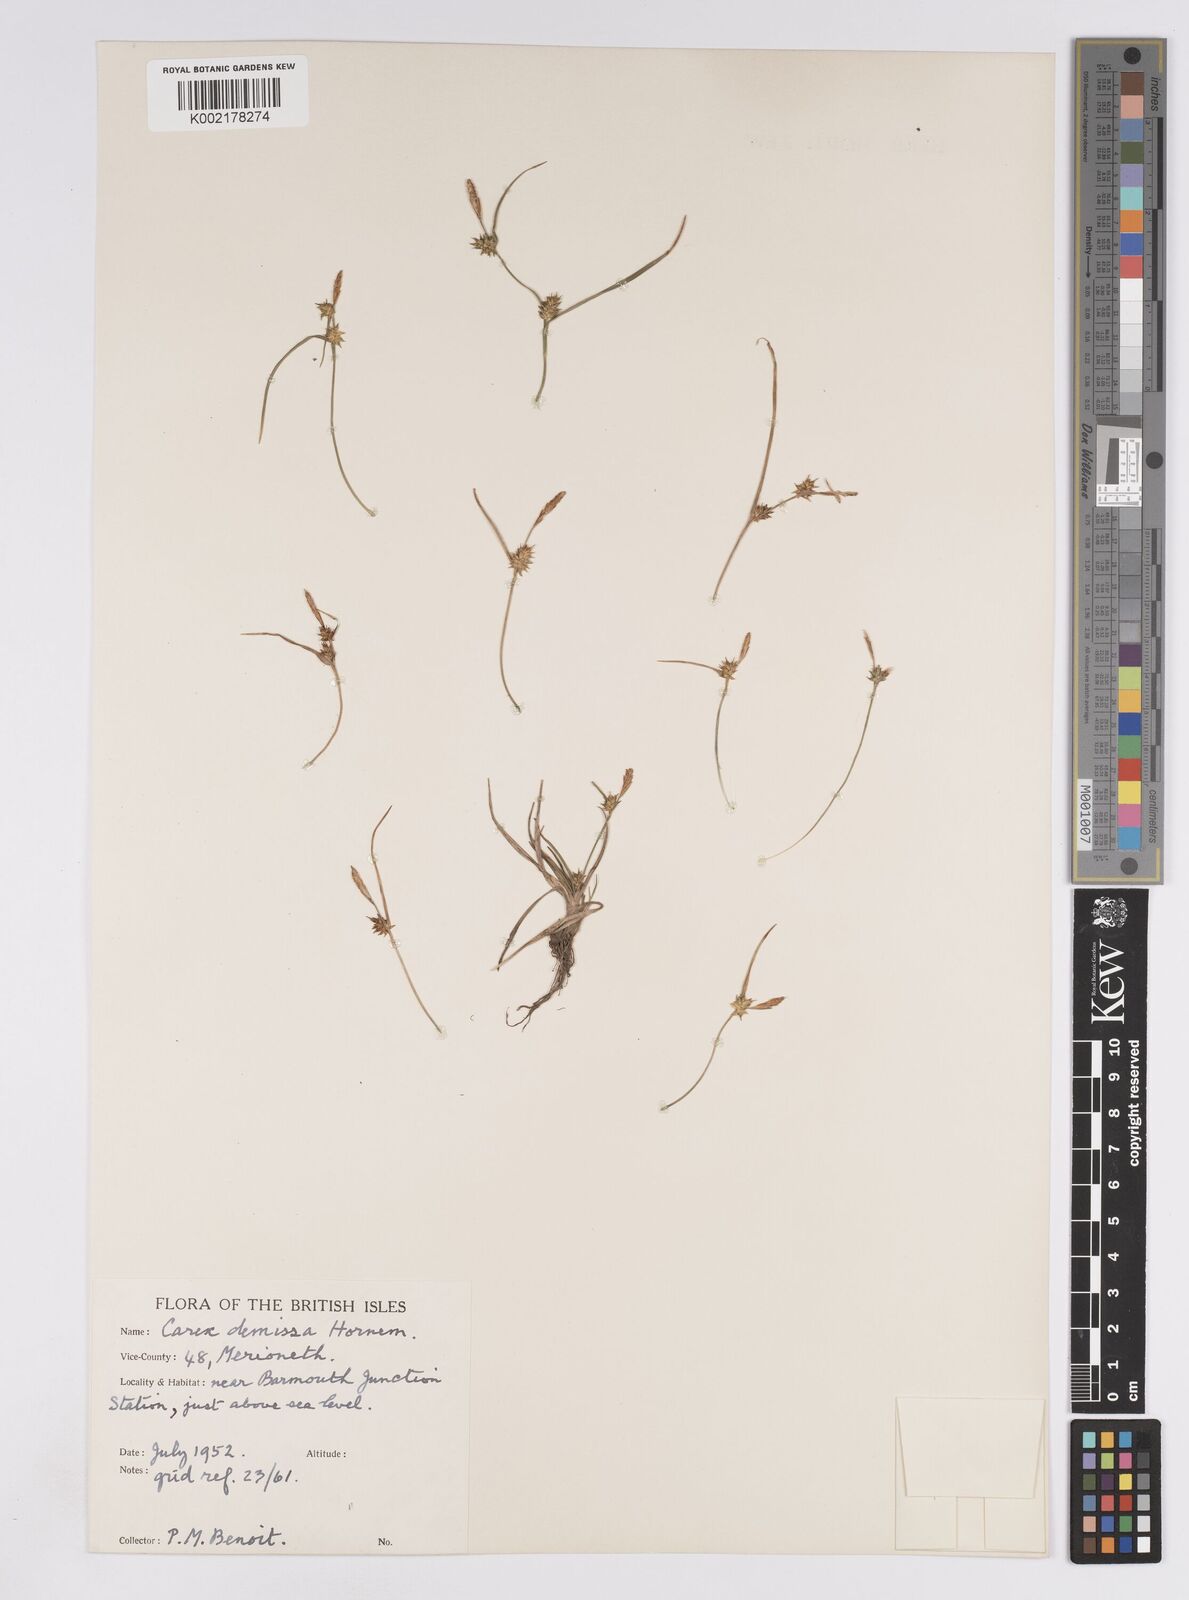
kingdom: Plantae
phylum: Tracheophyta
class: Liliopsida
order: Poales
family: Cyperaceae
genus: Carex
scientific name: Carex demissa
